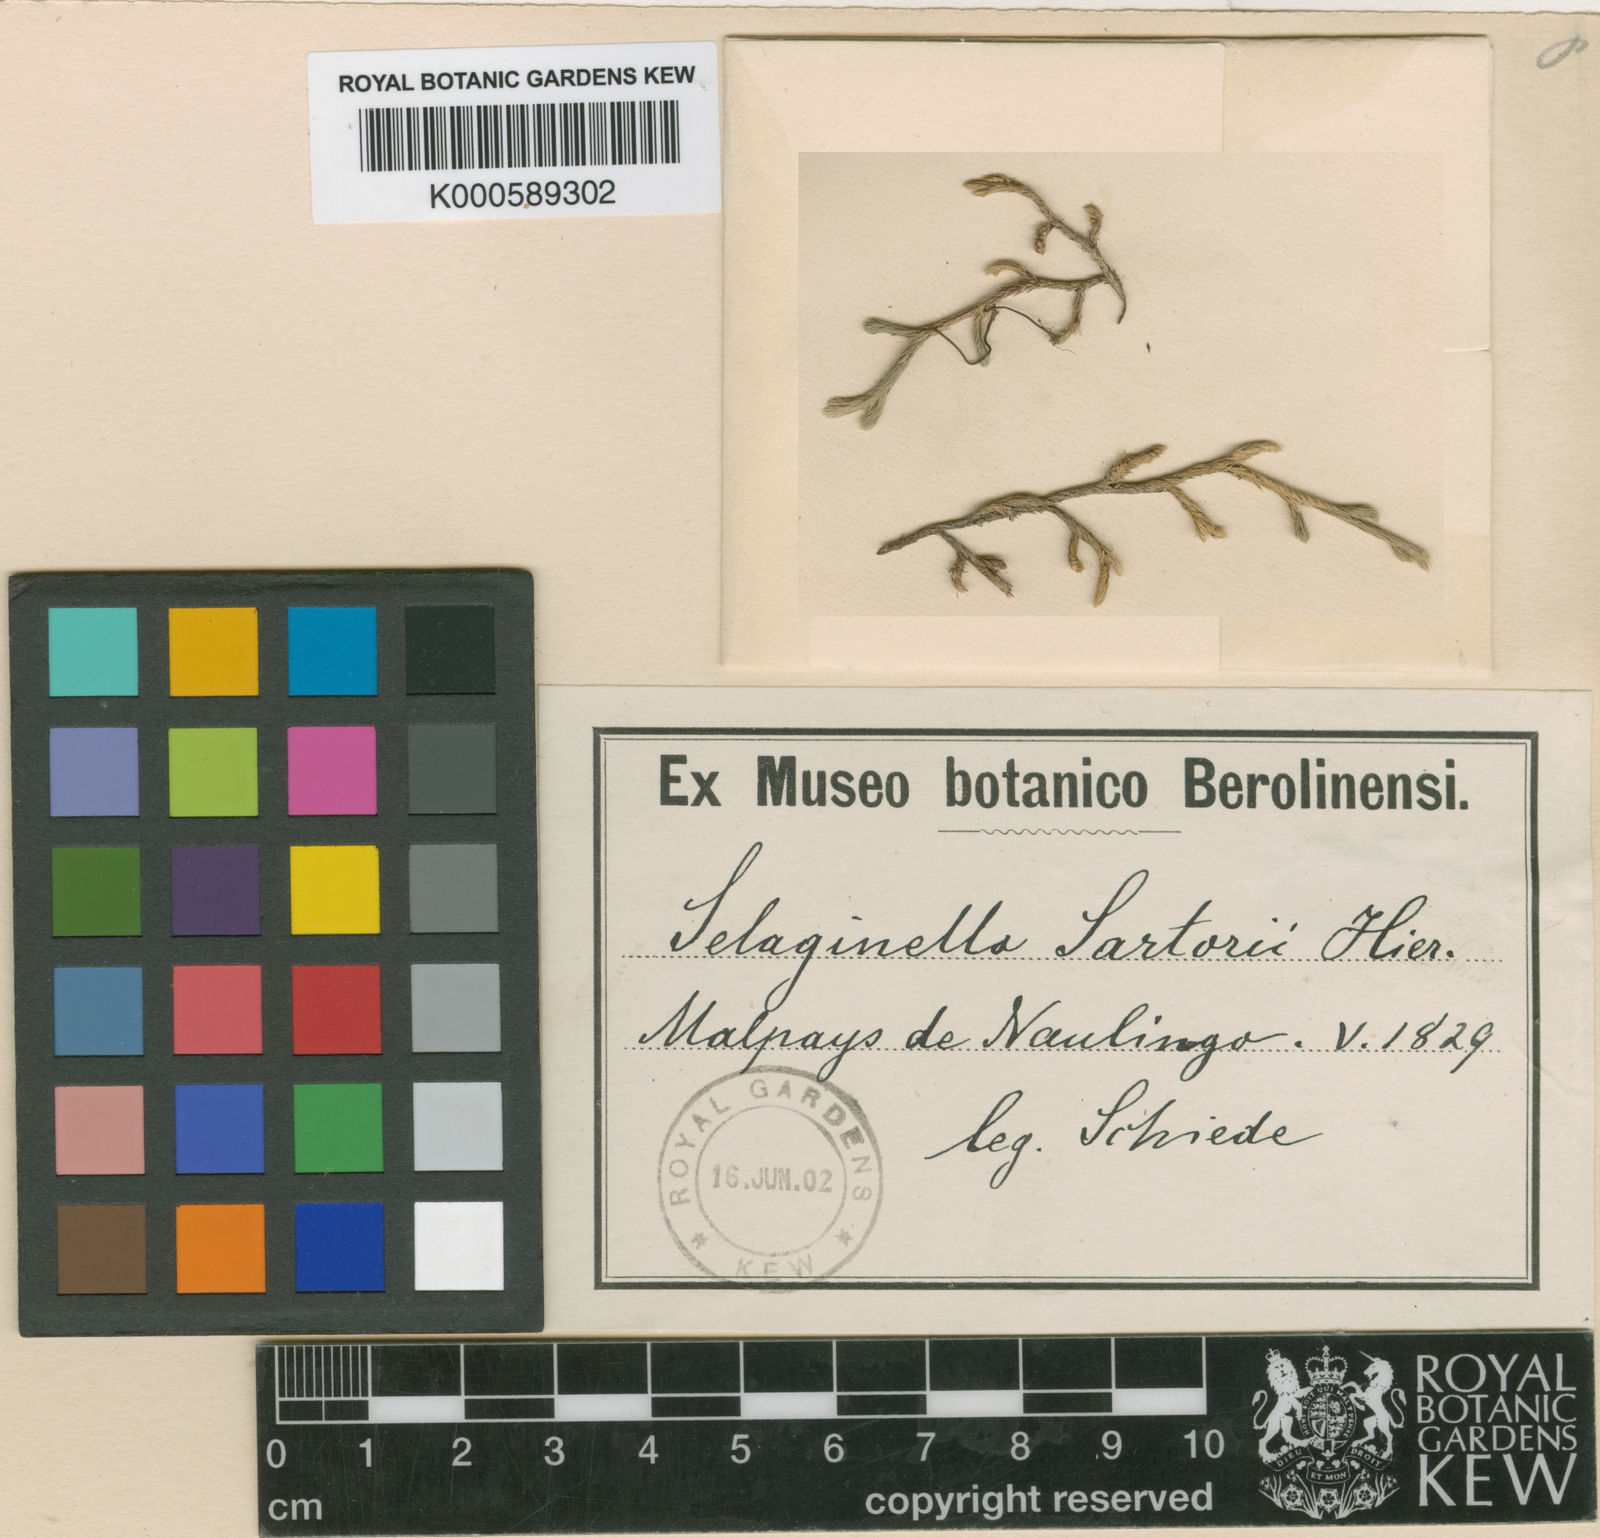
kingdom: Plantae
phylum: Tracheophyta
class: Lycopodiopsida
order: Selaginellales
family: Selaginellaceae
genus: Selaginella
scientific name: Selaginella sartorii
